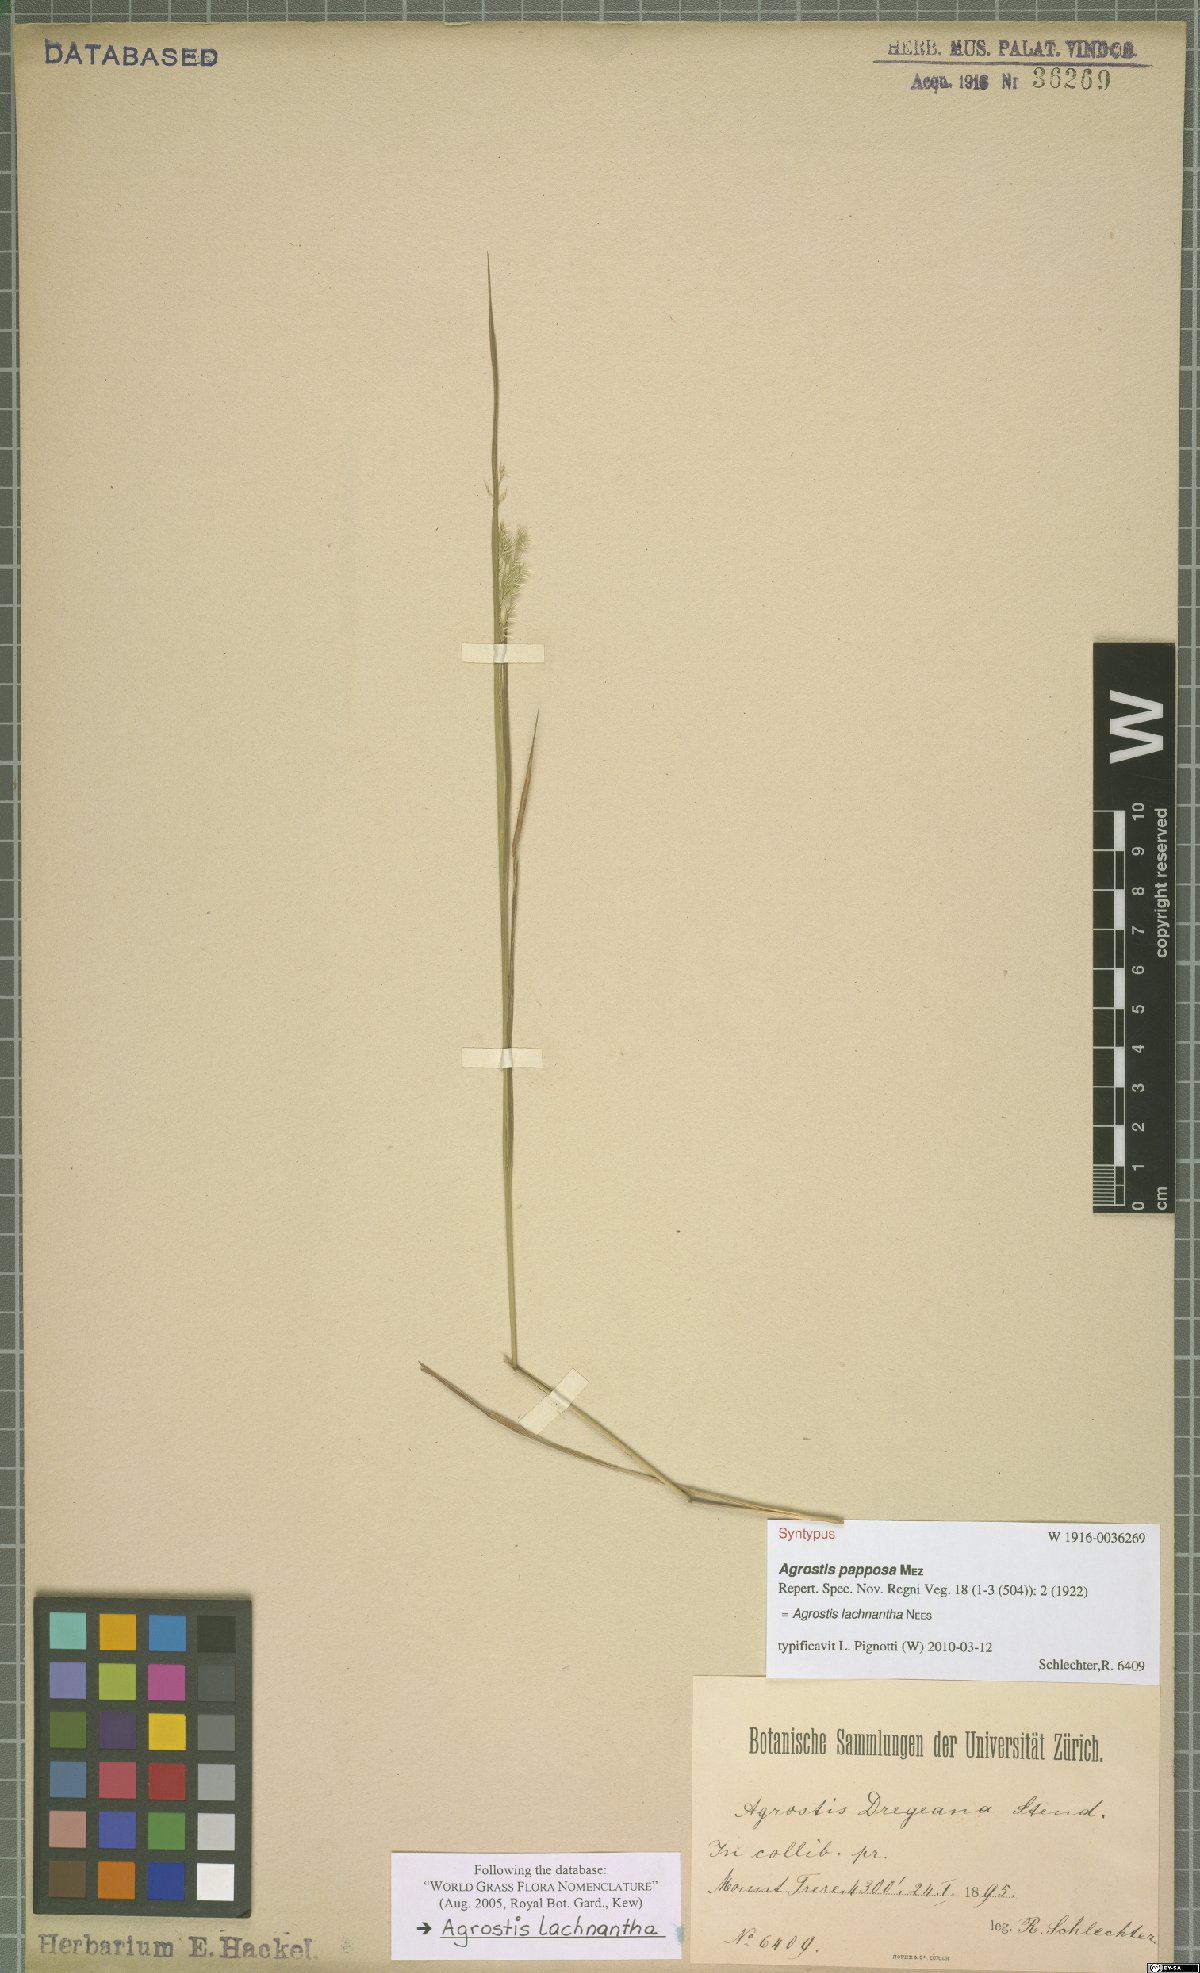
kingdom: Plantae
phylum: Tracheophyta
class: Liliopsida
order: Poales
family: Poaceae
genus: Lachnagrostis
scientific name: Lachnagrostis lachnantha
